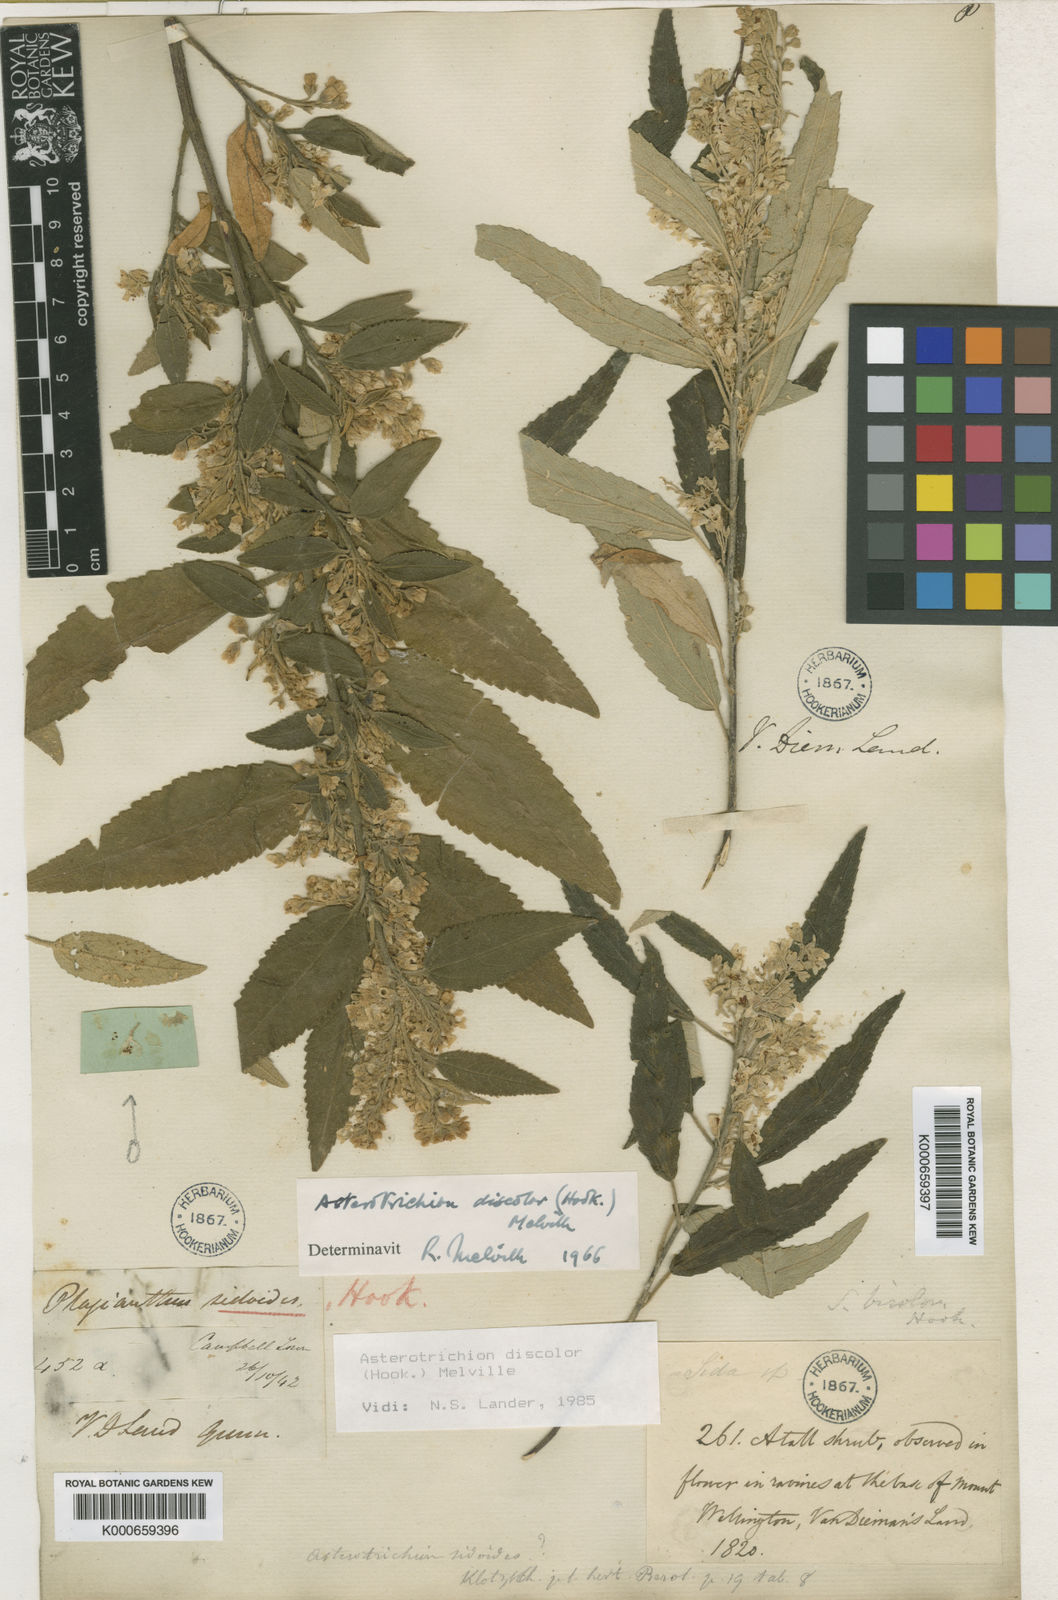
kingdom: Plantae
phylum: Tracheophyta
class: Magnoliopsida
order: Malvales
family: Malvaceae
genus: Asterotrichion
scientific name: Asterotrichion discolor
